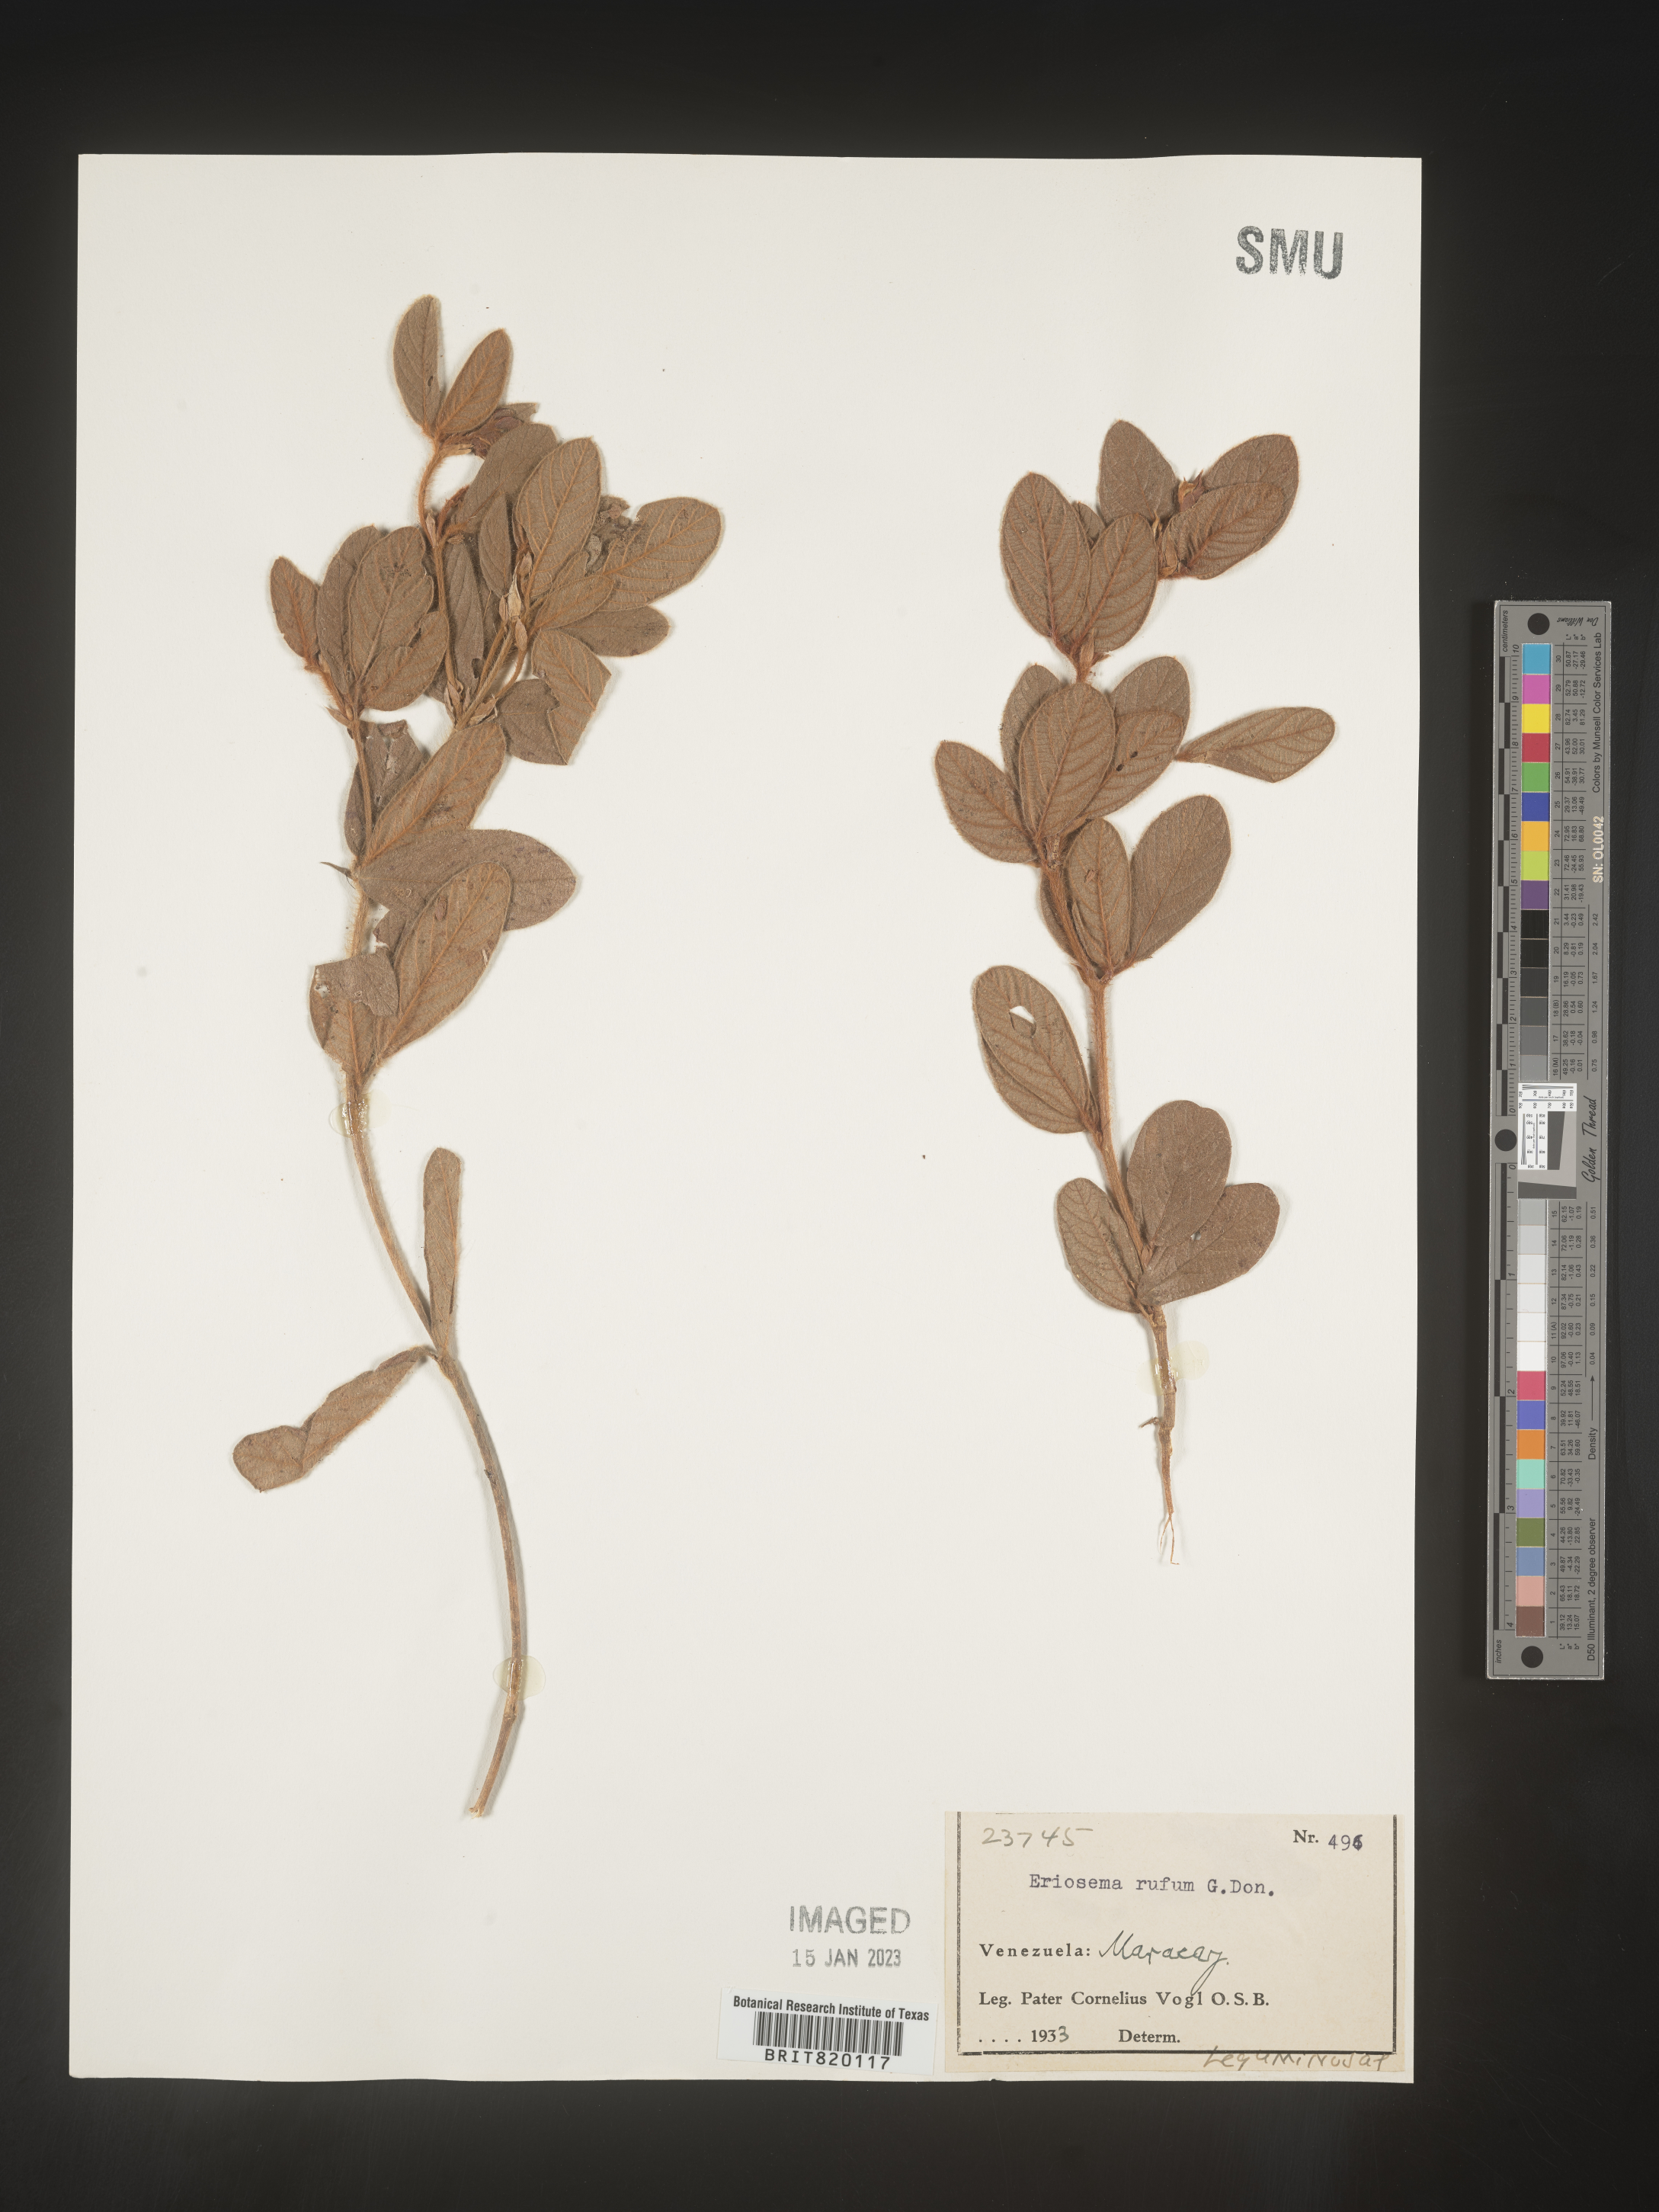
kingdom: Plantae
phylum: Tracheophyta
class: Magnoliopsida
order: Fabales
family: Fabaceae
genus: Eriosema
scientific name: Eriosema
